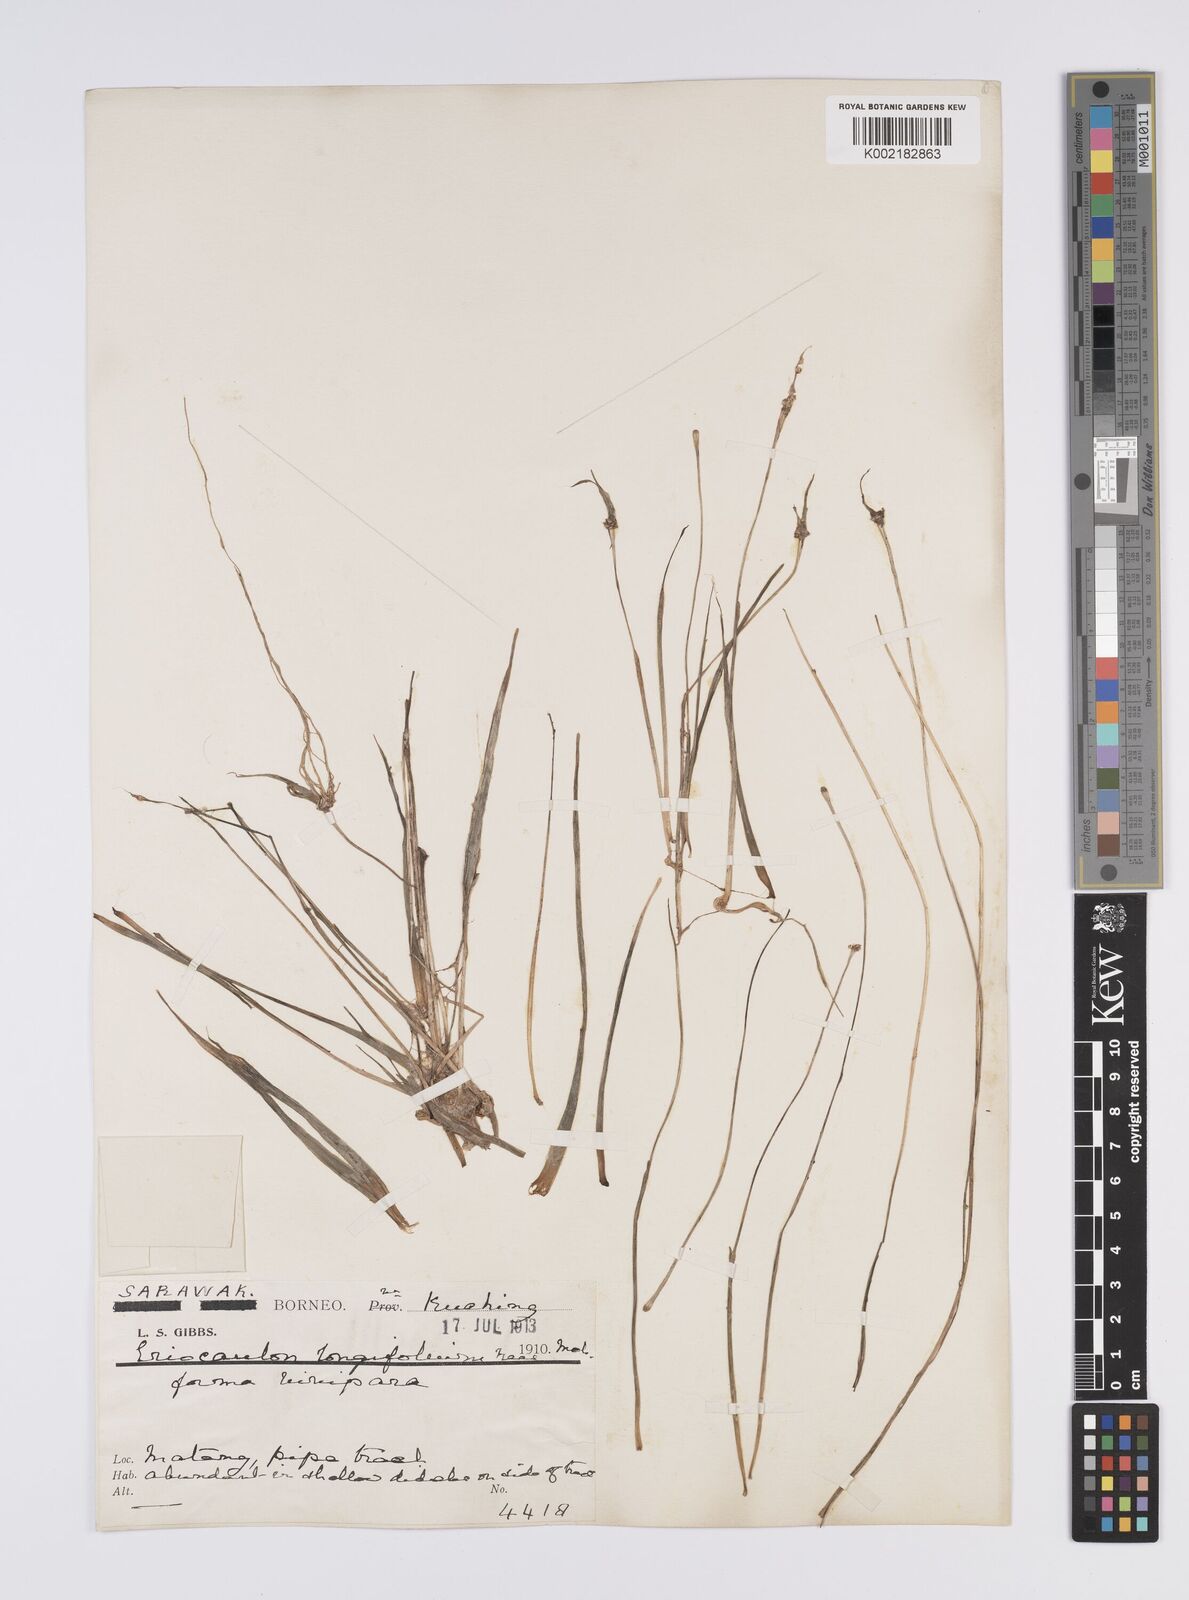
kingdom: Plantae
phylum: Tracheophyta
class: Liliopsida
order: Poales
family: Eriocaulaceae
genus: Eriocaulon
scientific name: Eriocaulon willdenovianum
